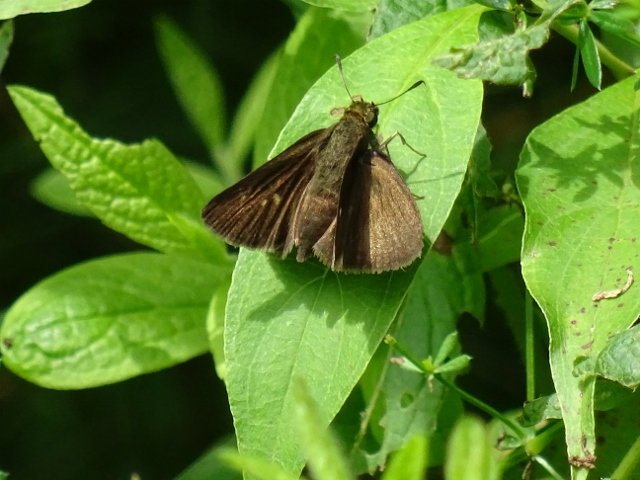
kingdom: Animalia
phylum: Arthropoda
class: Insecta
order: Lepidoptera
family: Hesperiidae
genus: Euphyes
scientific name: Euphyes vestris
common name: Dun Skipper
